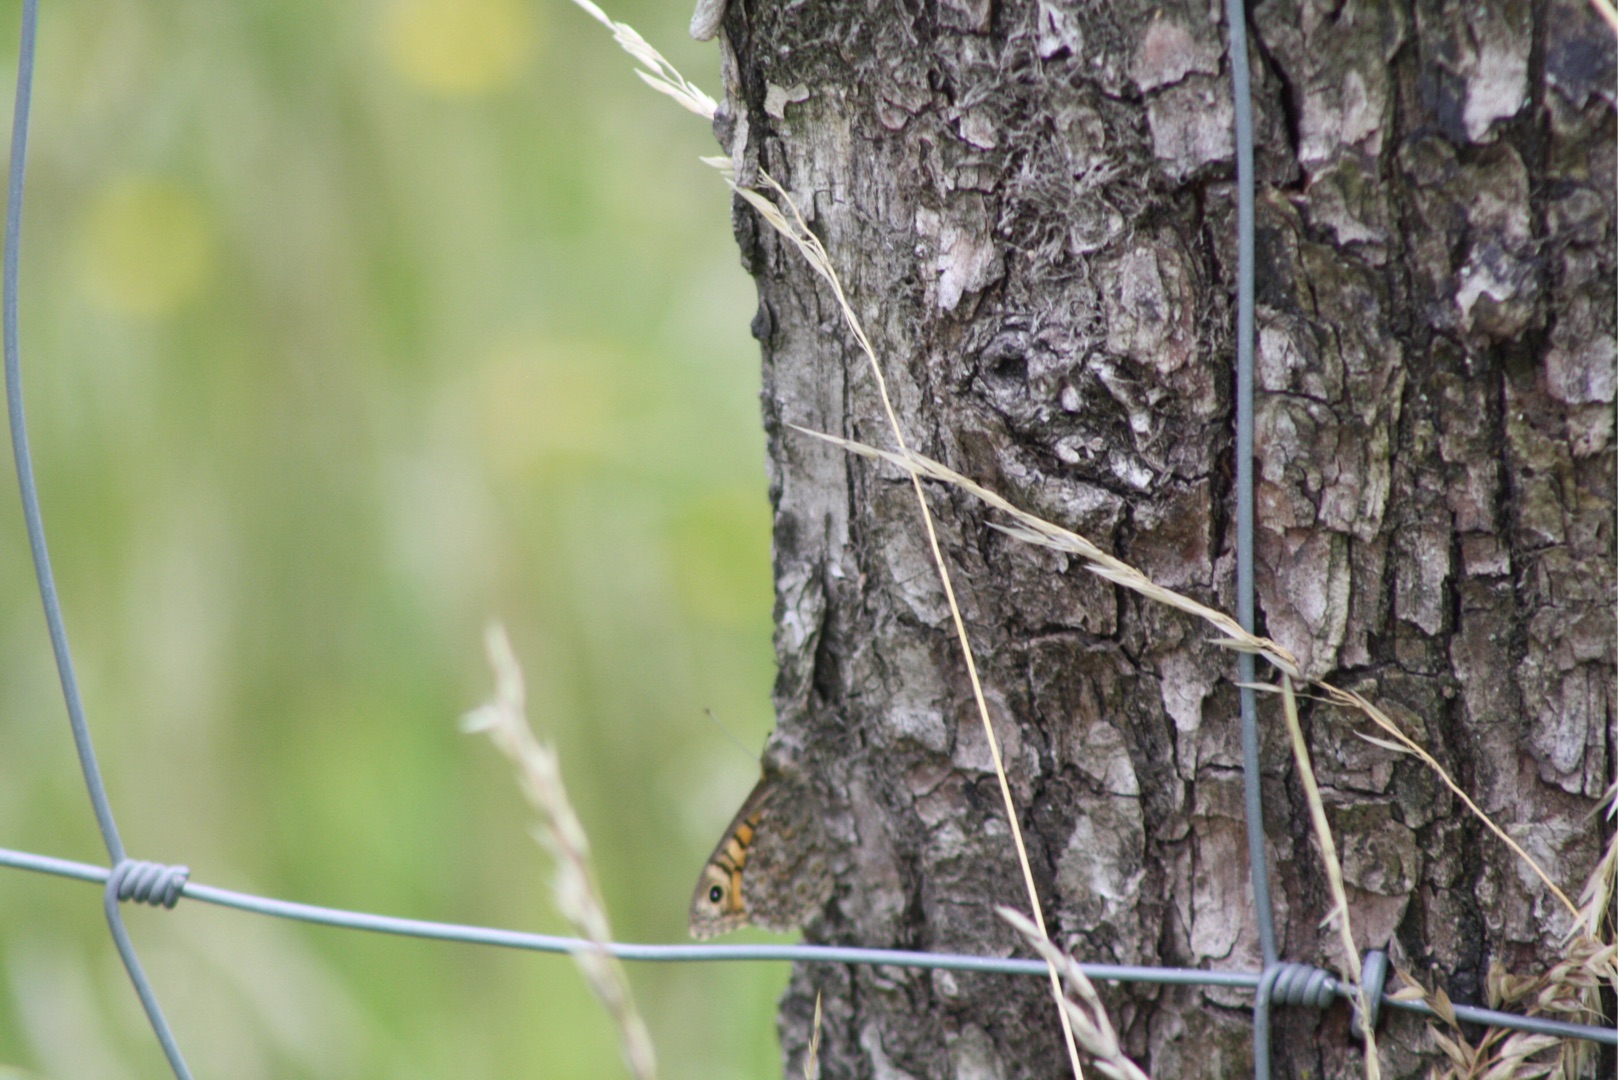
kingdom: Animalia
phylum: Arthropoda
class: Insecta
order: Lepidoptera
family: Nymphalidae
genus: Pararge
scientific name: Pararge Lasiommata megera
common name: Vejrandøje
